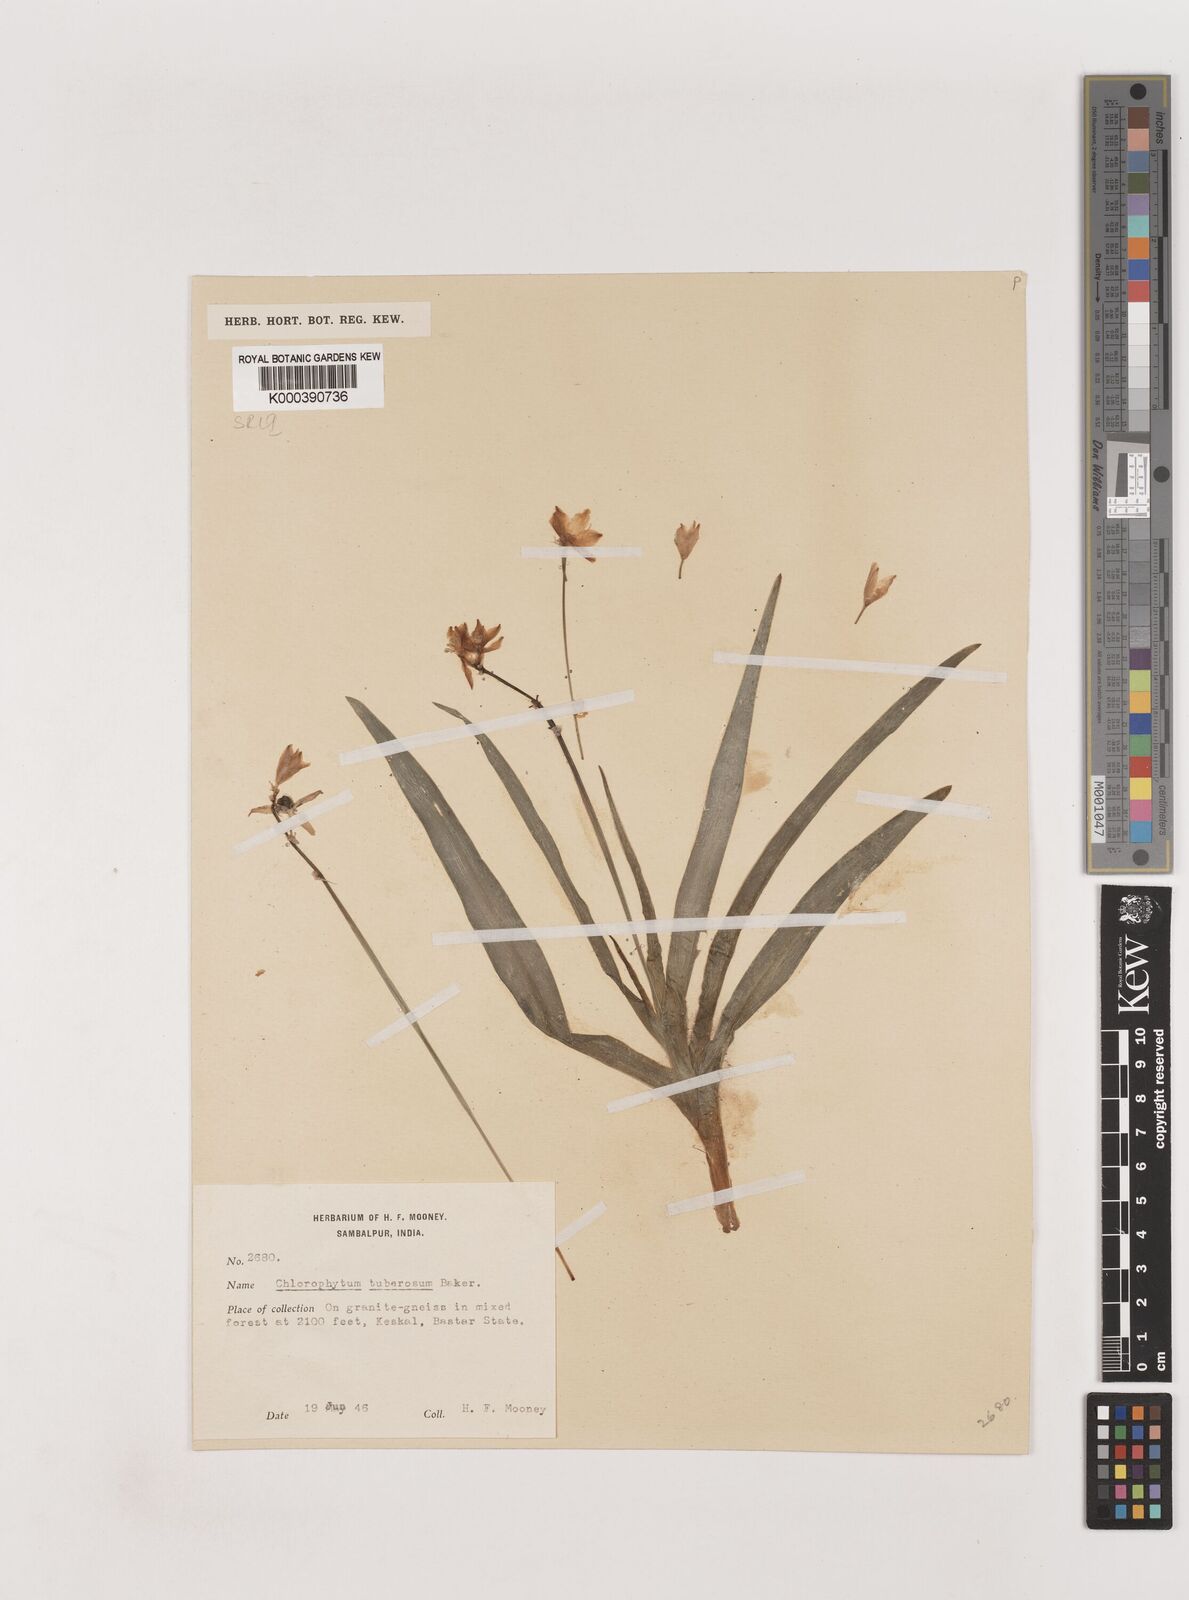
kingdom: Plantae
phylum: Tracheophyta
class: Liliopsida
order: Asparagales
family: Asparagaceae
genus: Chlorophytum
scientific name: Chlorophytum tuberosum
